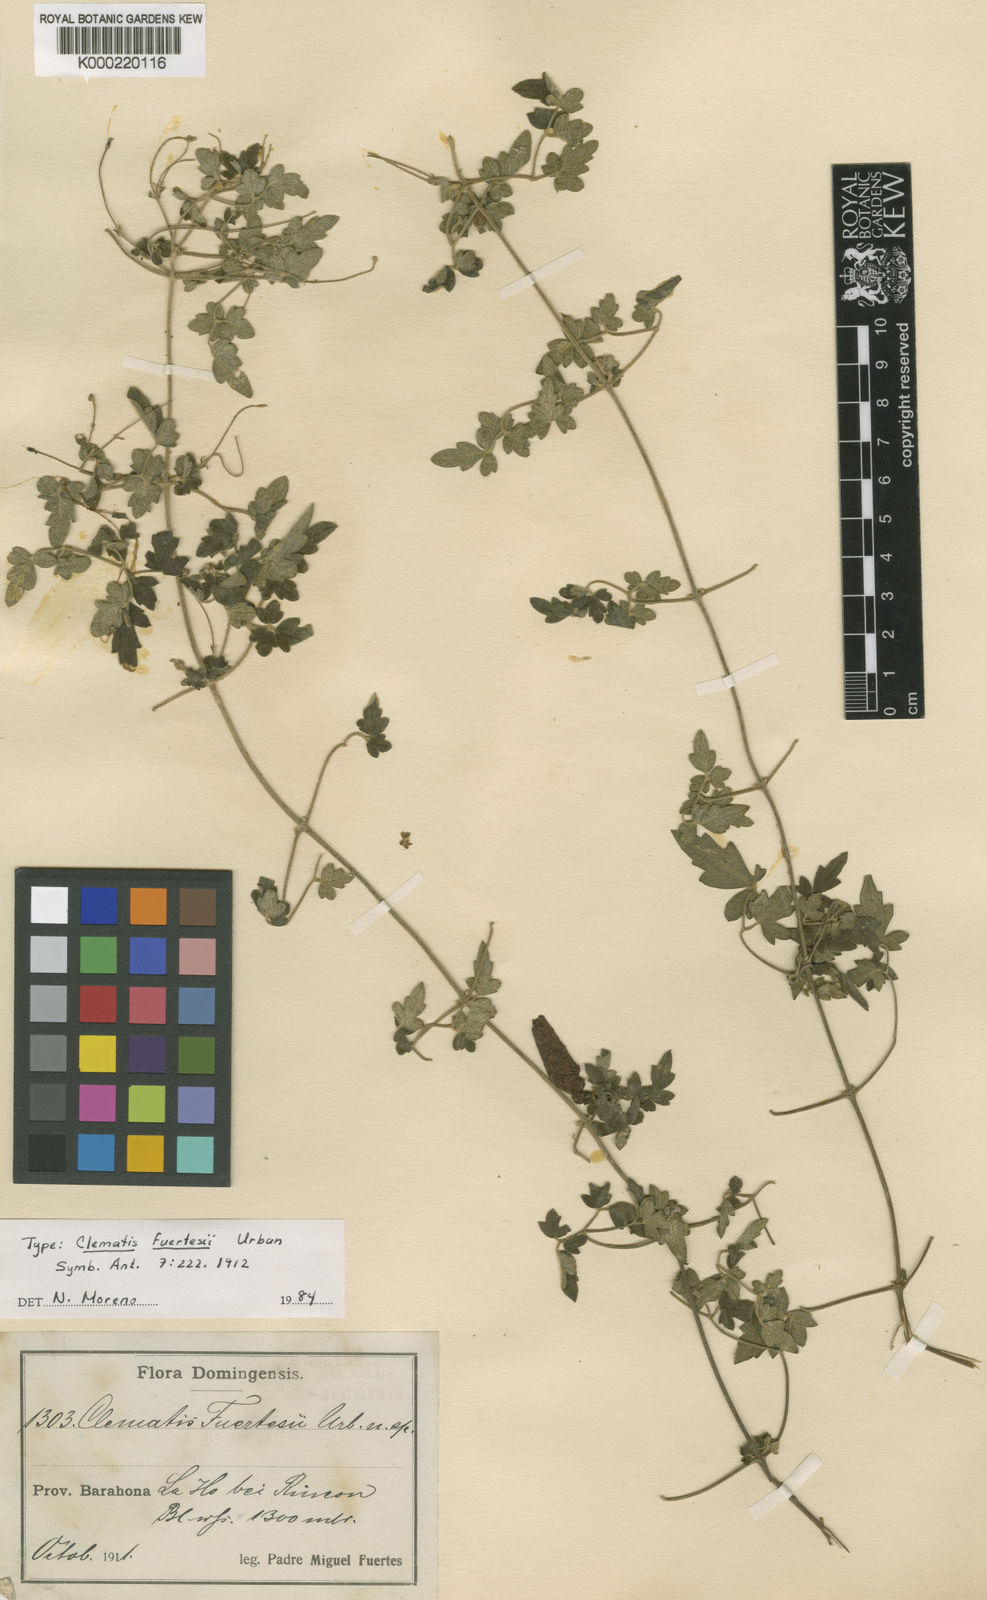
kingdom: Plantae
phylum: Tracheophyta
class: Magnoliopsida
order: Ranunculales
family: Ranunculaceae
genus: Clematis
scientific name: Clematis flammulastrum
